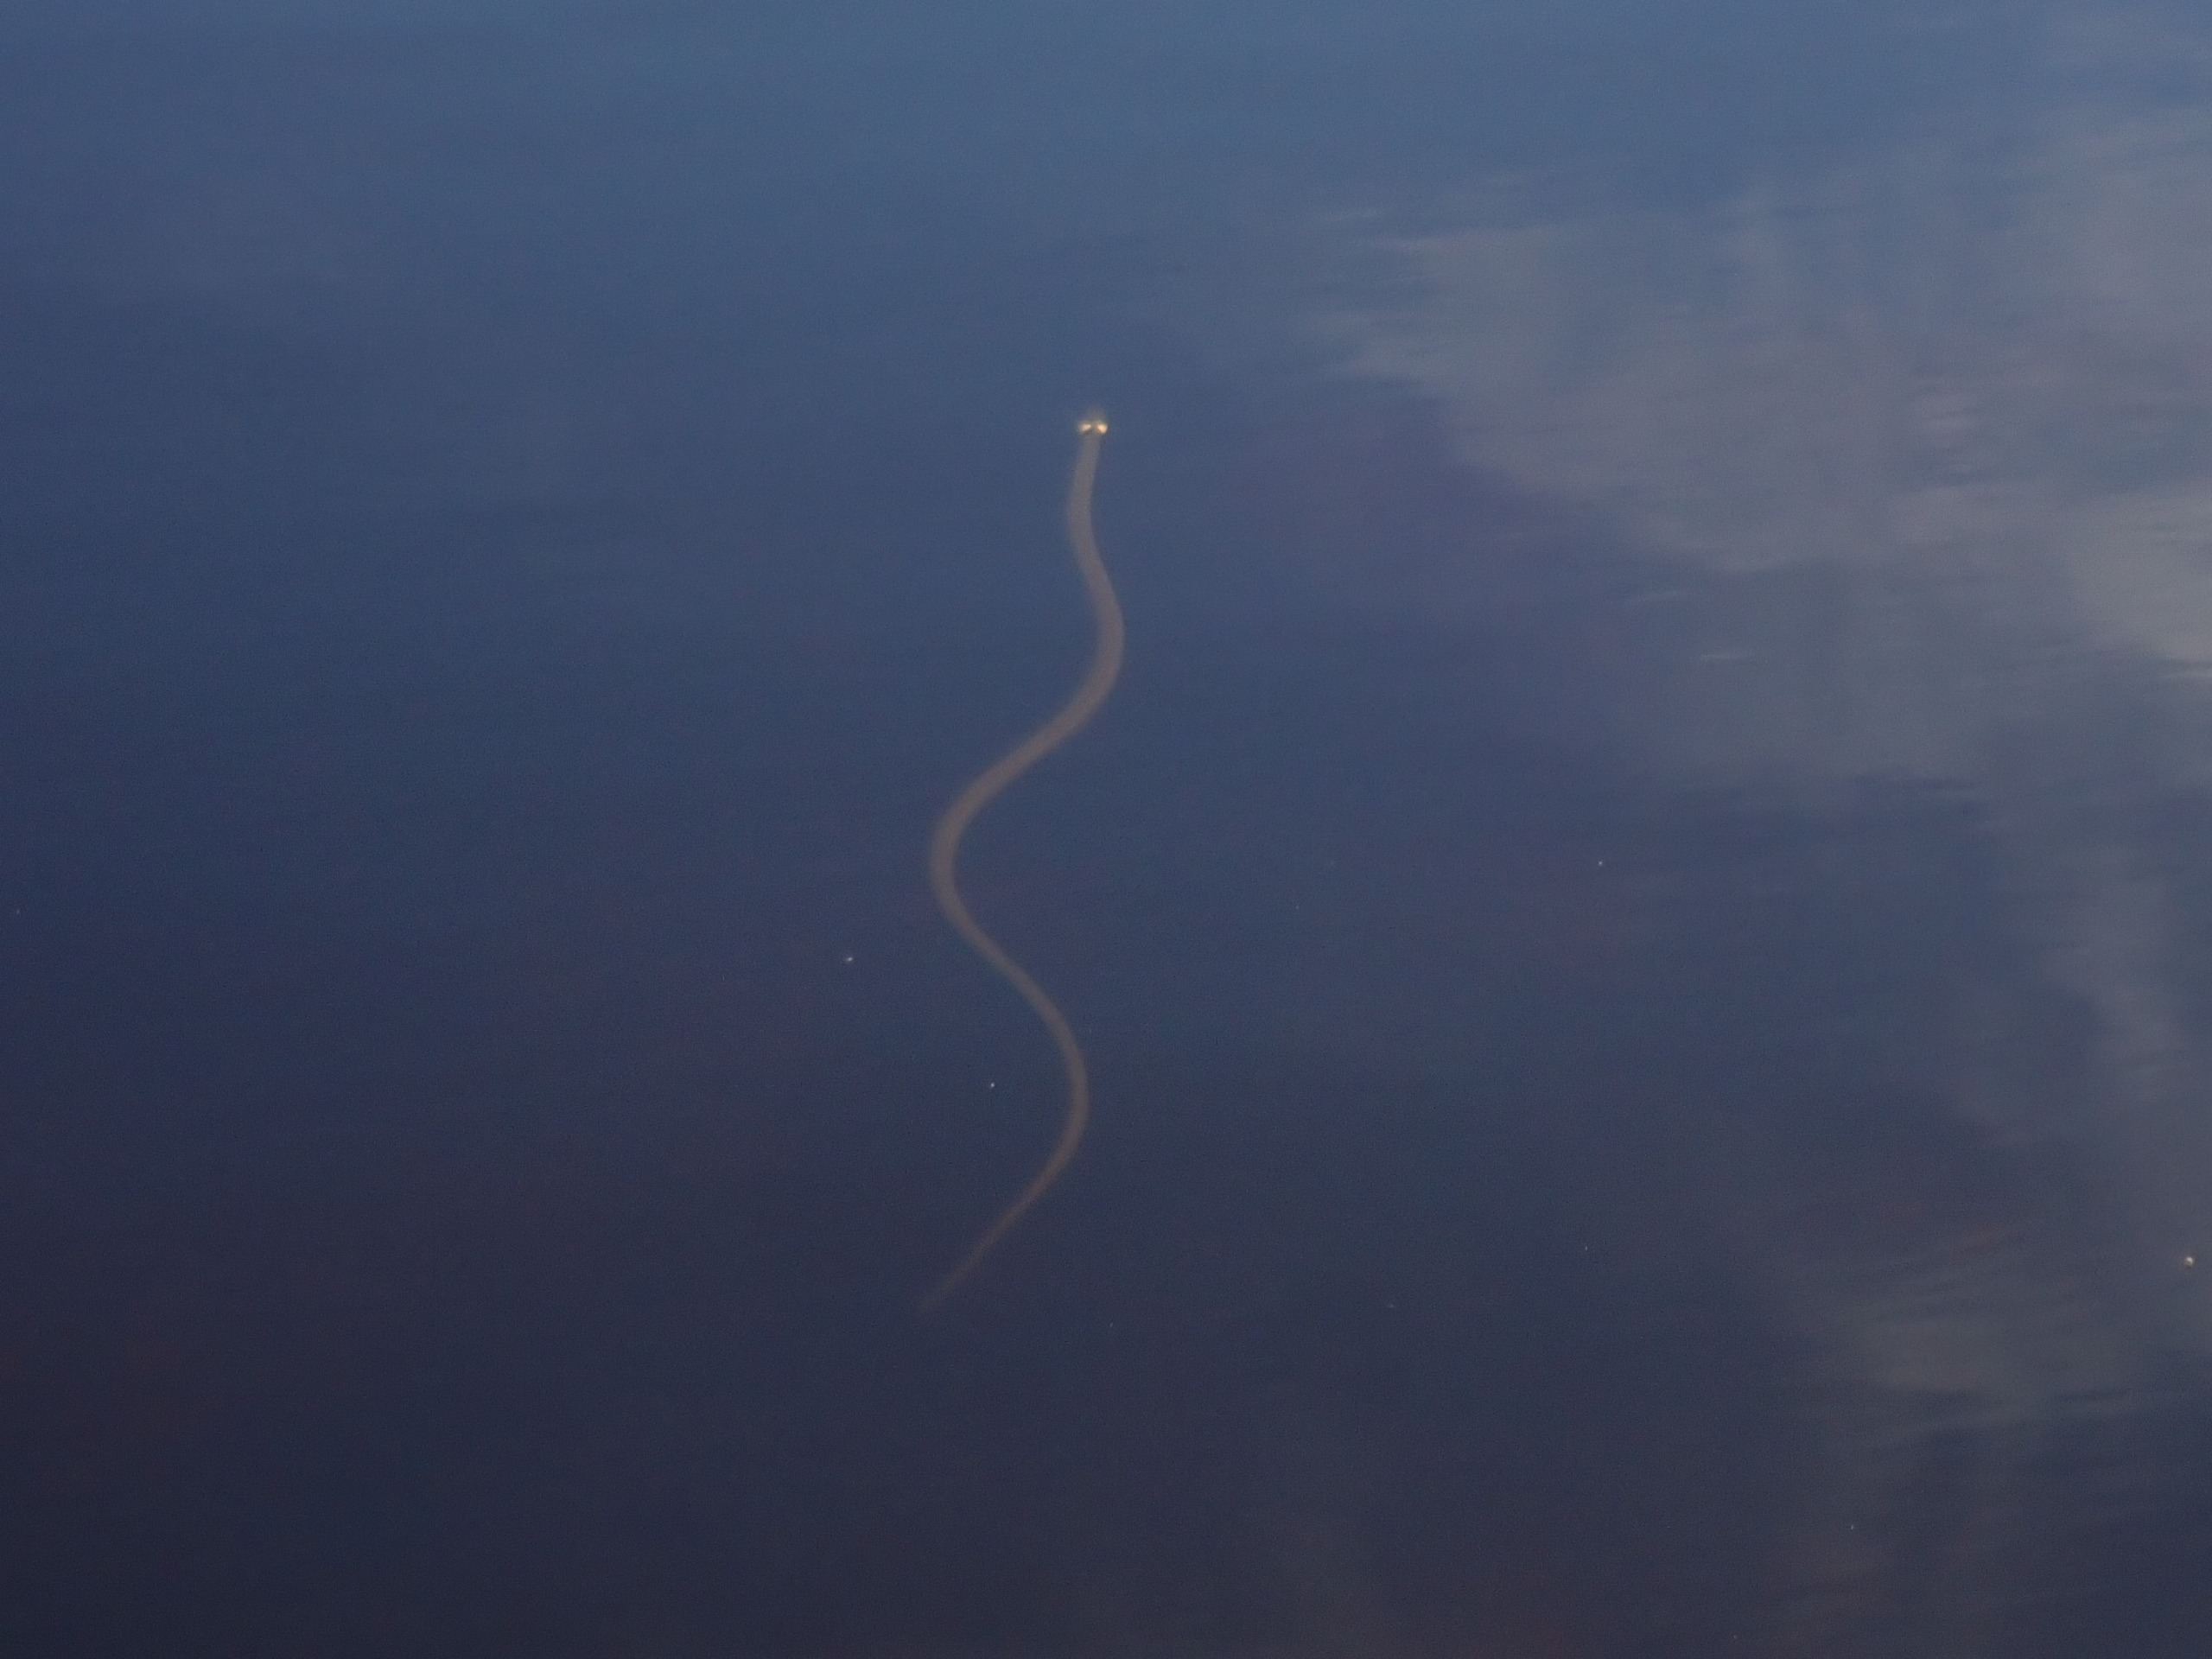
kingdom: Animalia
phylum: Chordata
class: Squamata
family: Colubridae
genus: Natrix
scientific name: Natrix natrix
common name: Snog
